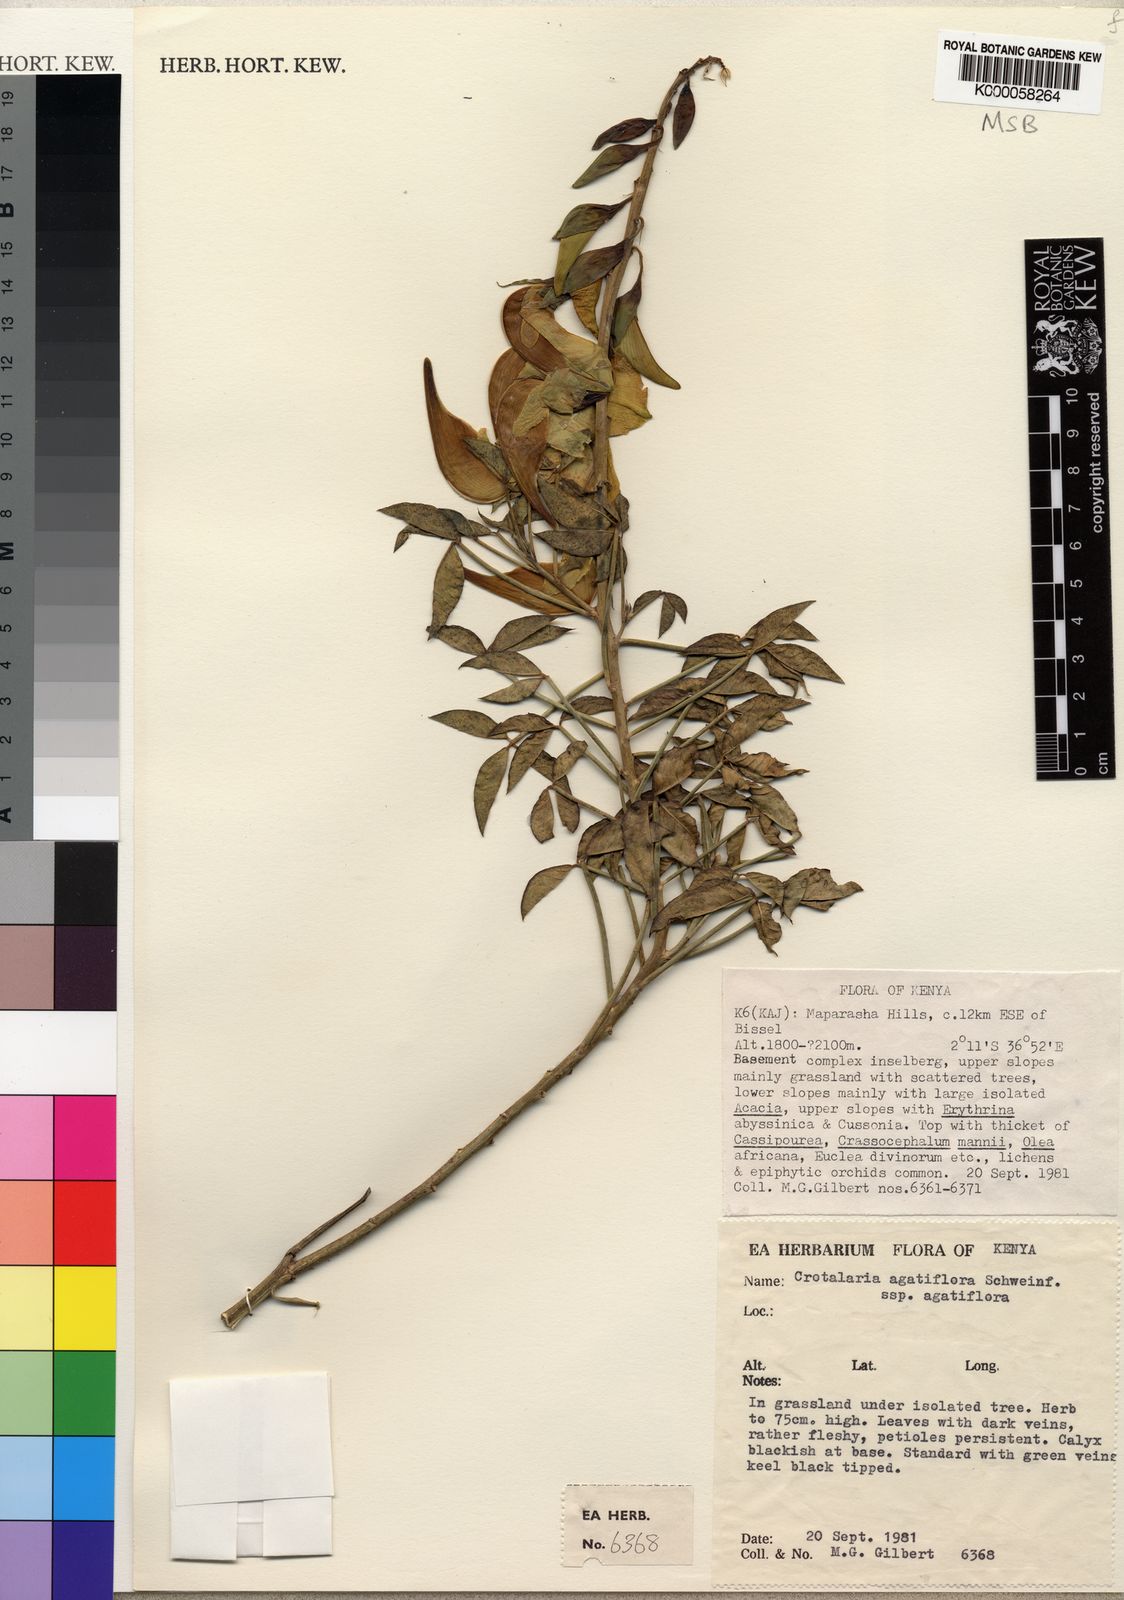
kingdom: Plantae
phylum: Tracheophyta
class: Magnoliopsida
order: Fabales
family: Fabaceae
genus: Crotalaria
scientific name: Crotalaria agatiflora
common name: Birdflower
